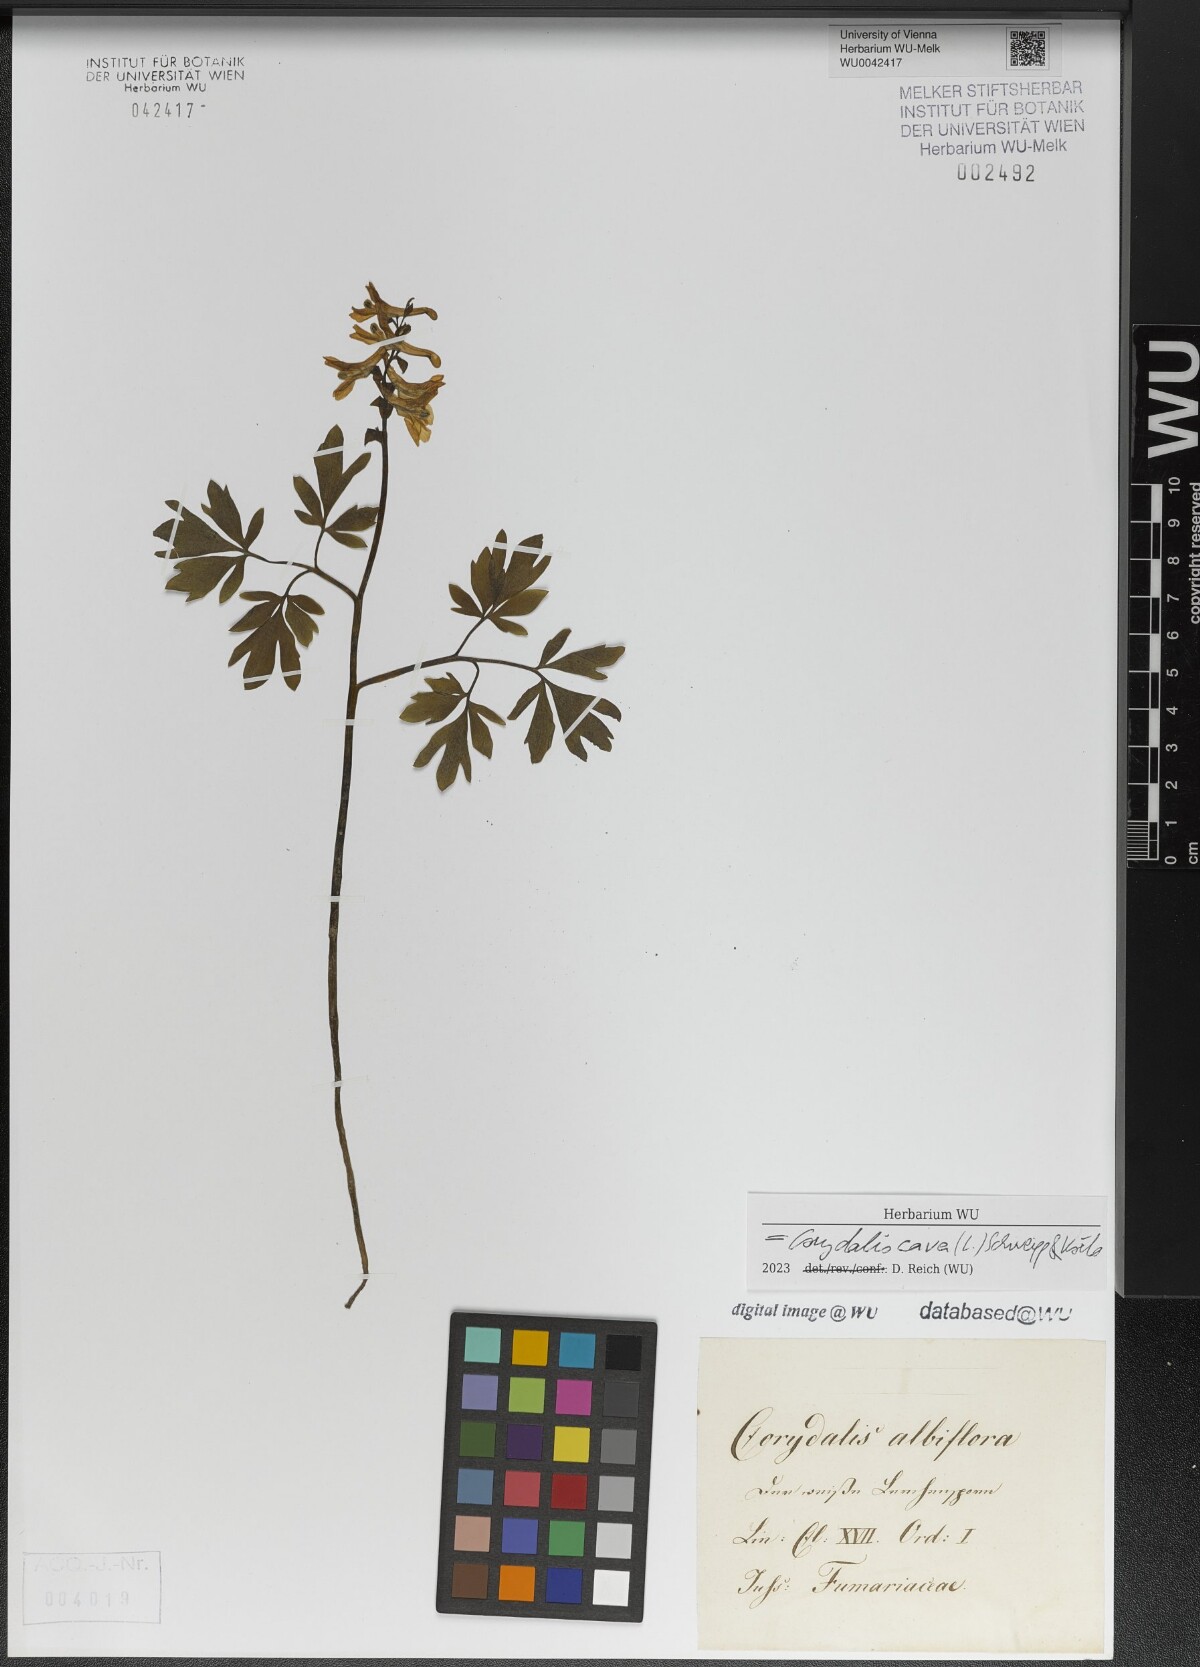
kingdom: Plantae
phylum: Tracheophyta
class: Magnoliopsida
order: Ranunculales
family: Papaveraceae
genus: Corydalis
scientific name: Corydalis cava
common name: Hollowroot
